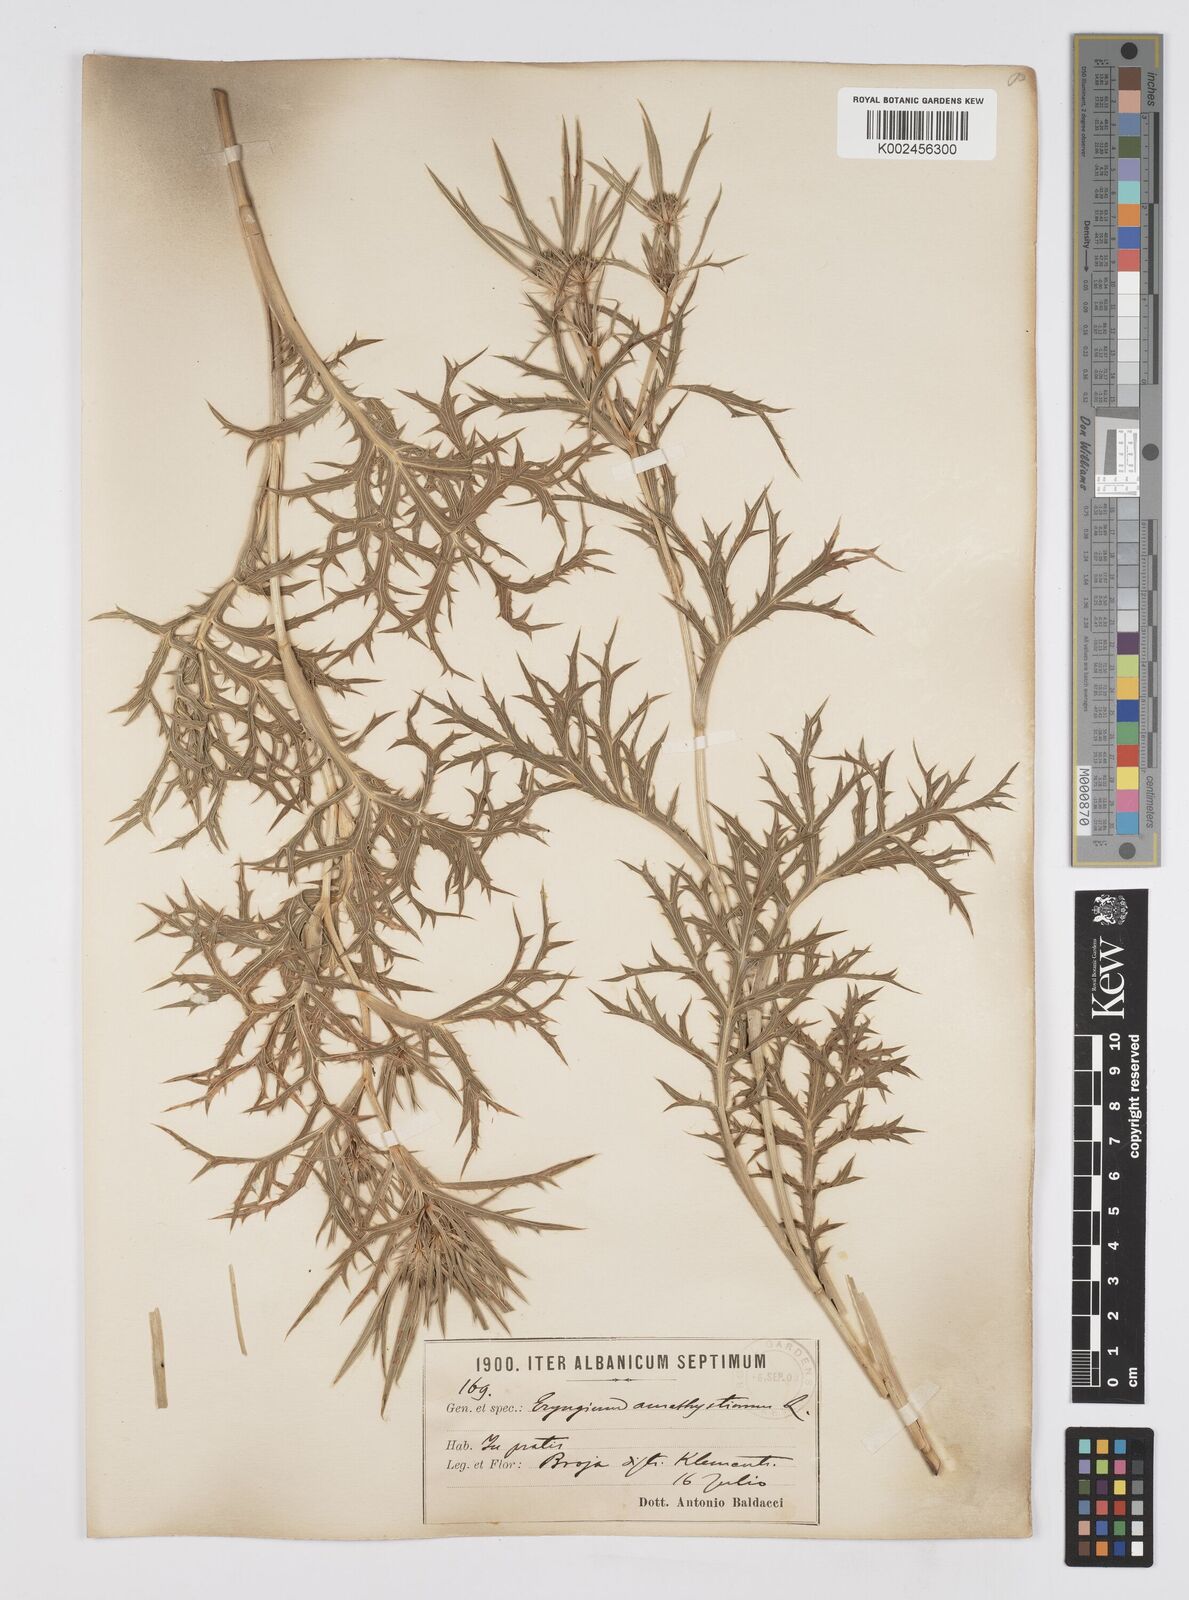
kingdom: Plantae
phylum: Tracheophyta
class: Magnoliopsida
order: Apiales
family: Apiaceae
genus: Eryngium
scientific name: Eryngium amethystinum
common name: Amethyst eryngo
